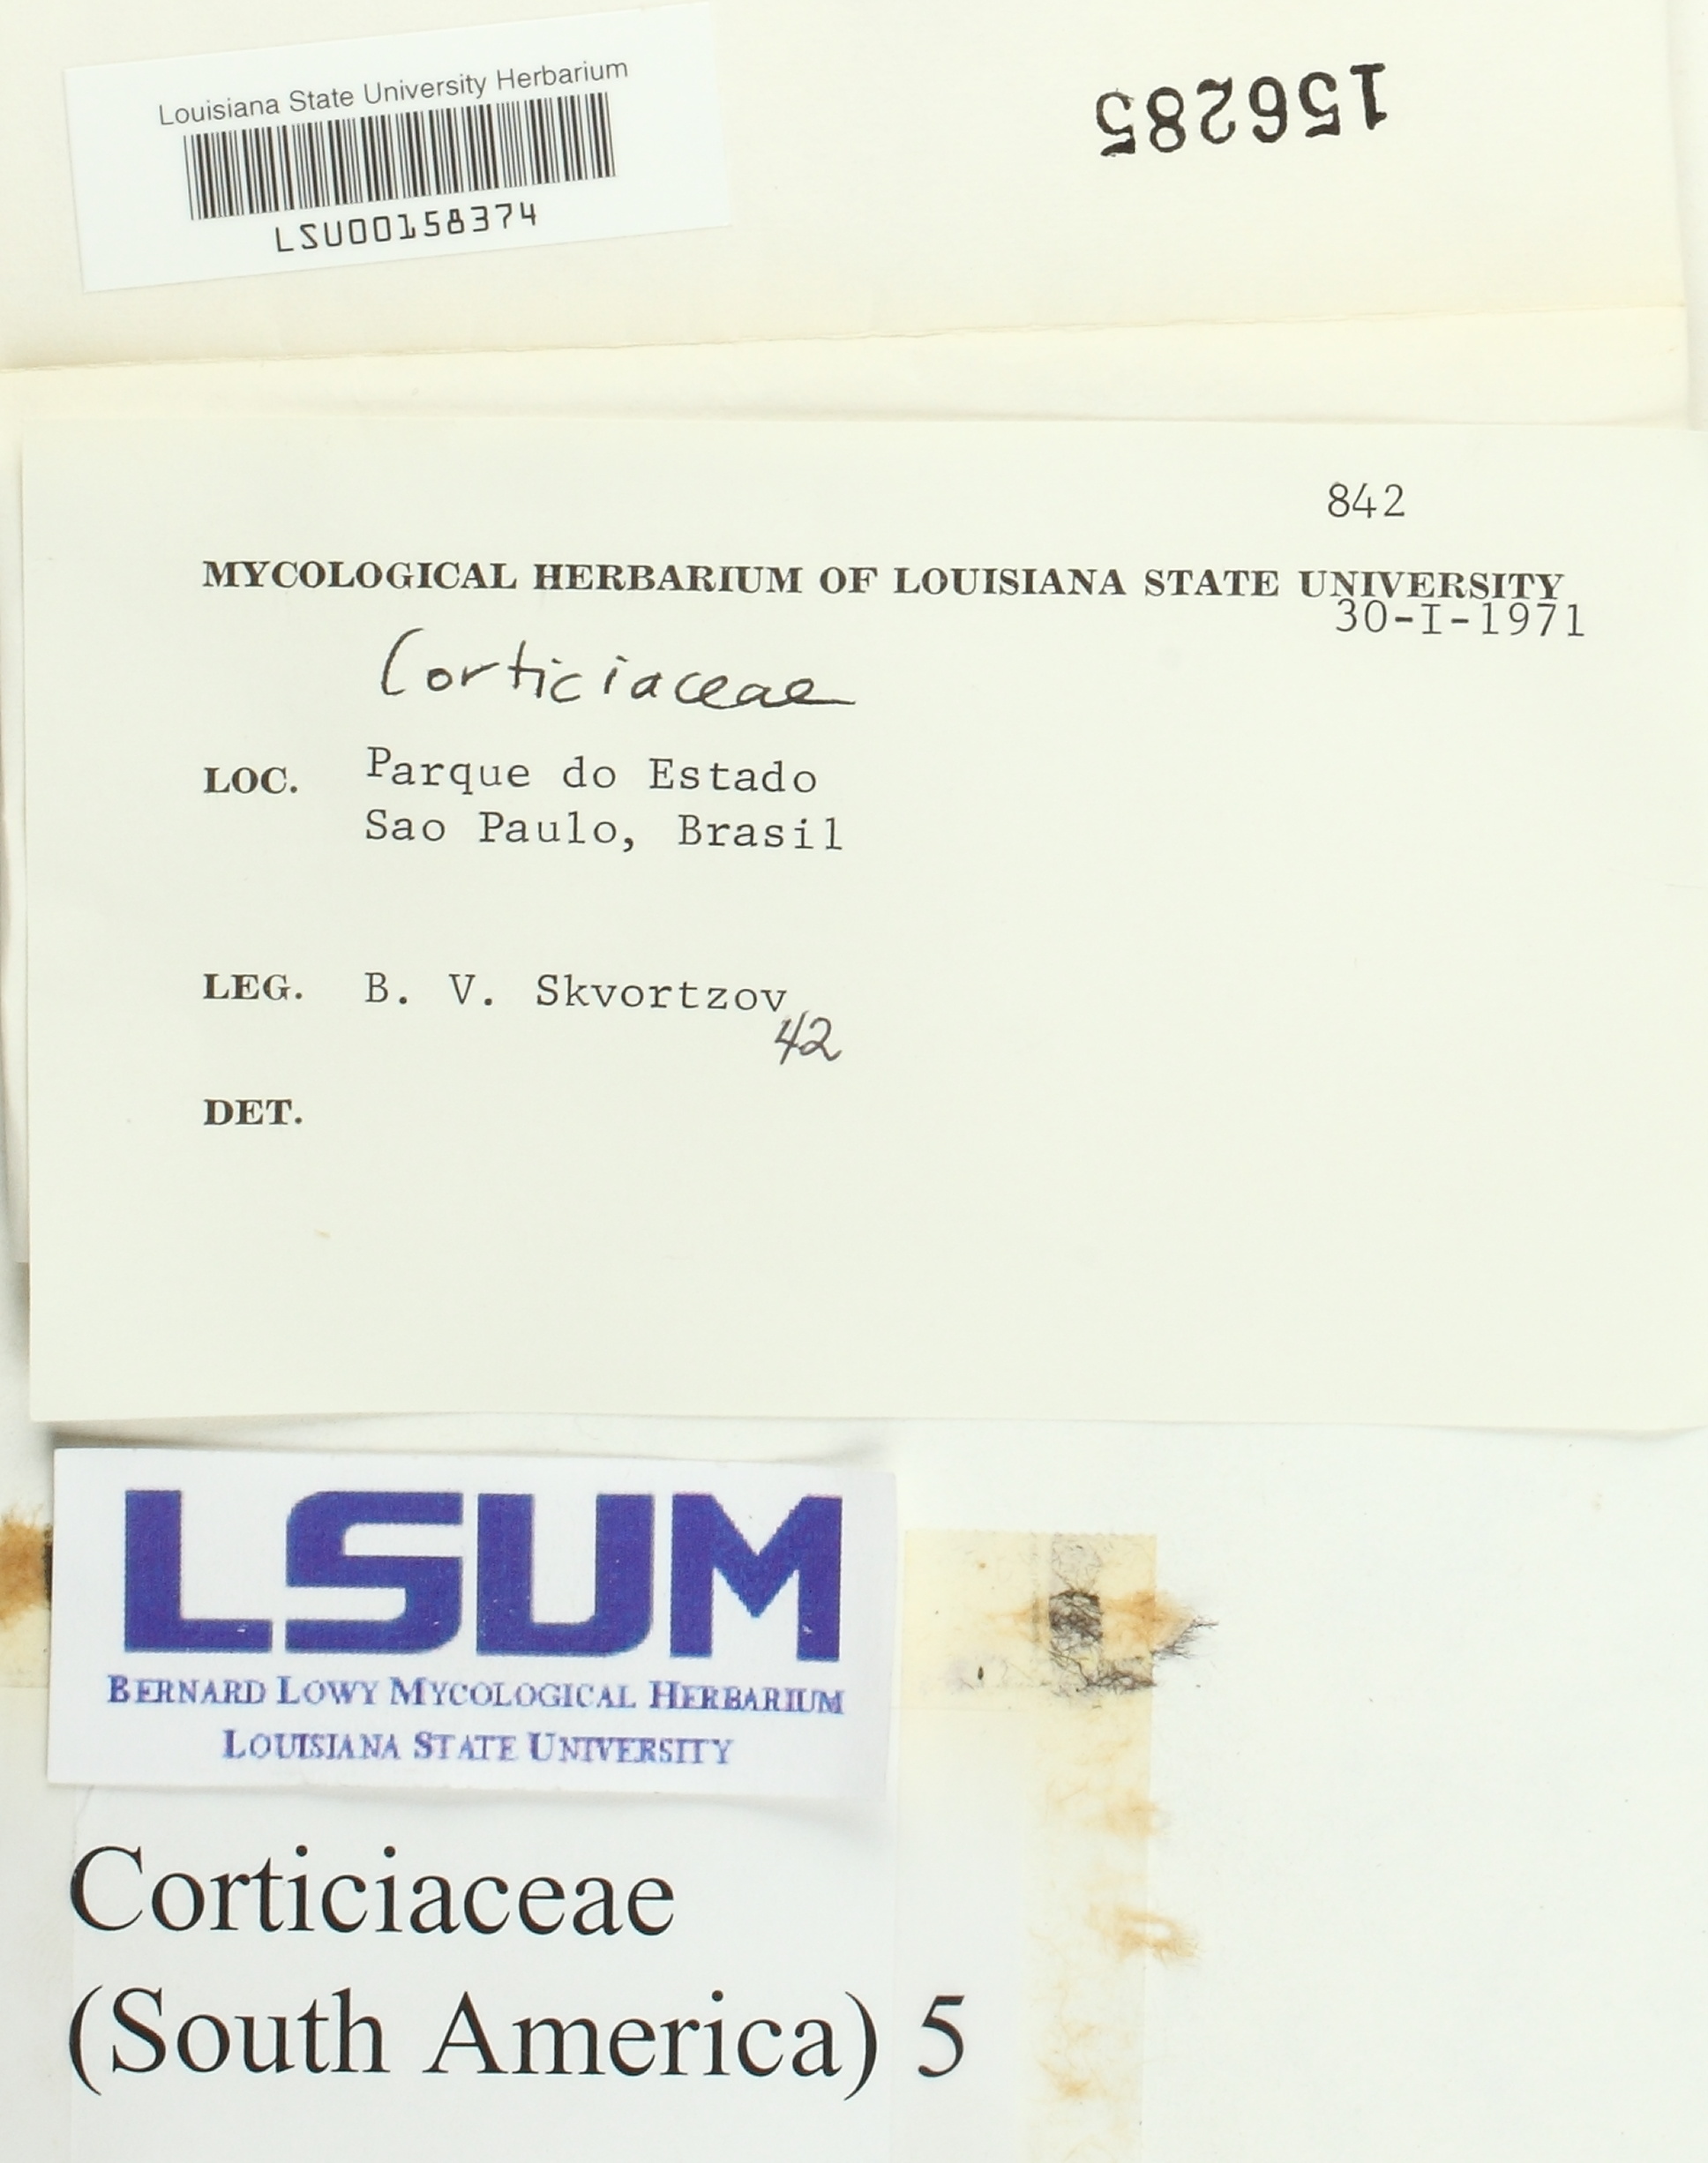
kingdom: Fungi
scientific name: Fungi
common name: Fungi
